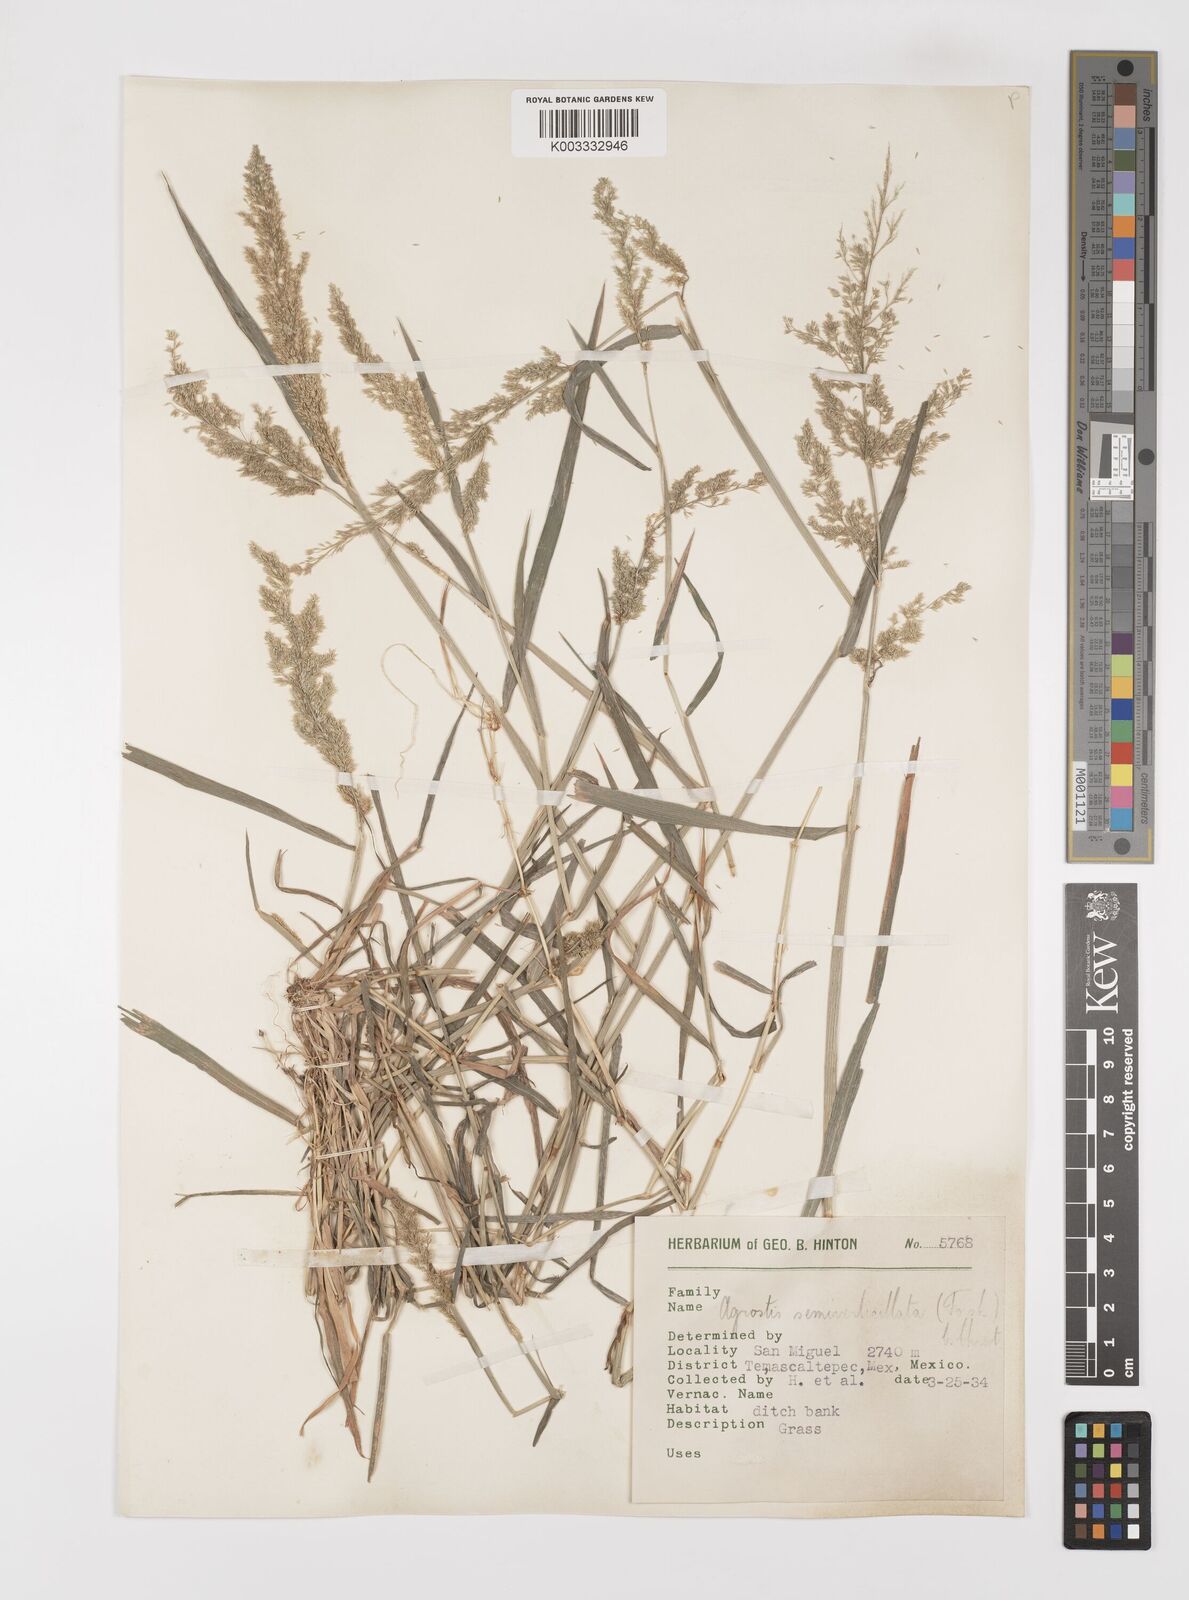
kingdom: Plantae
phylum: Tracheophyta
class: Liliopsida
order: Poales
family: Poaceae
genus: Polypogon
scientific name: Polypogon viridis
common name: Water bent
